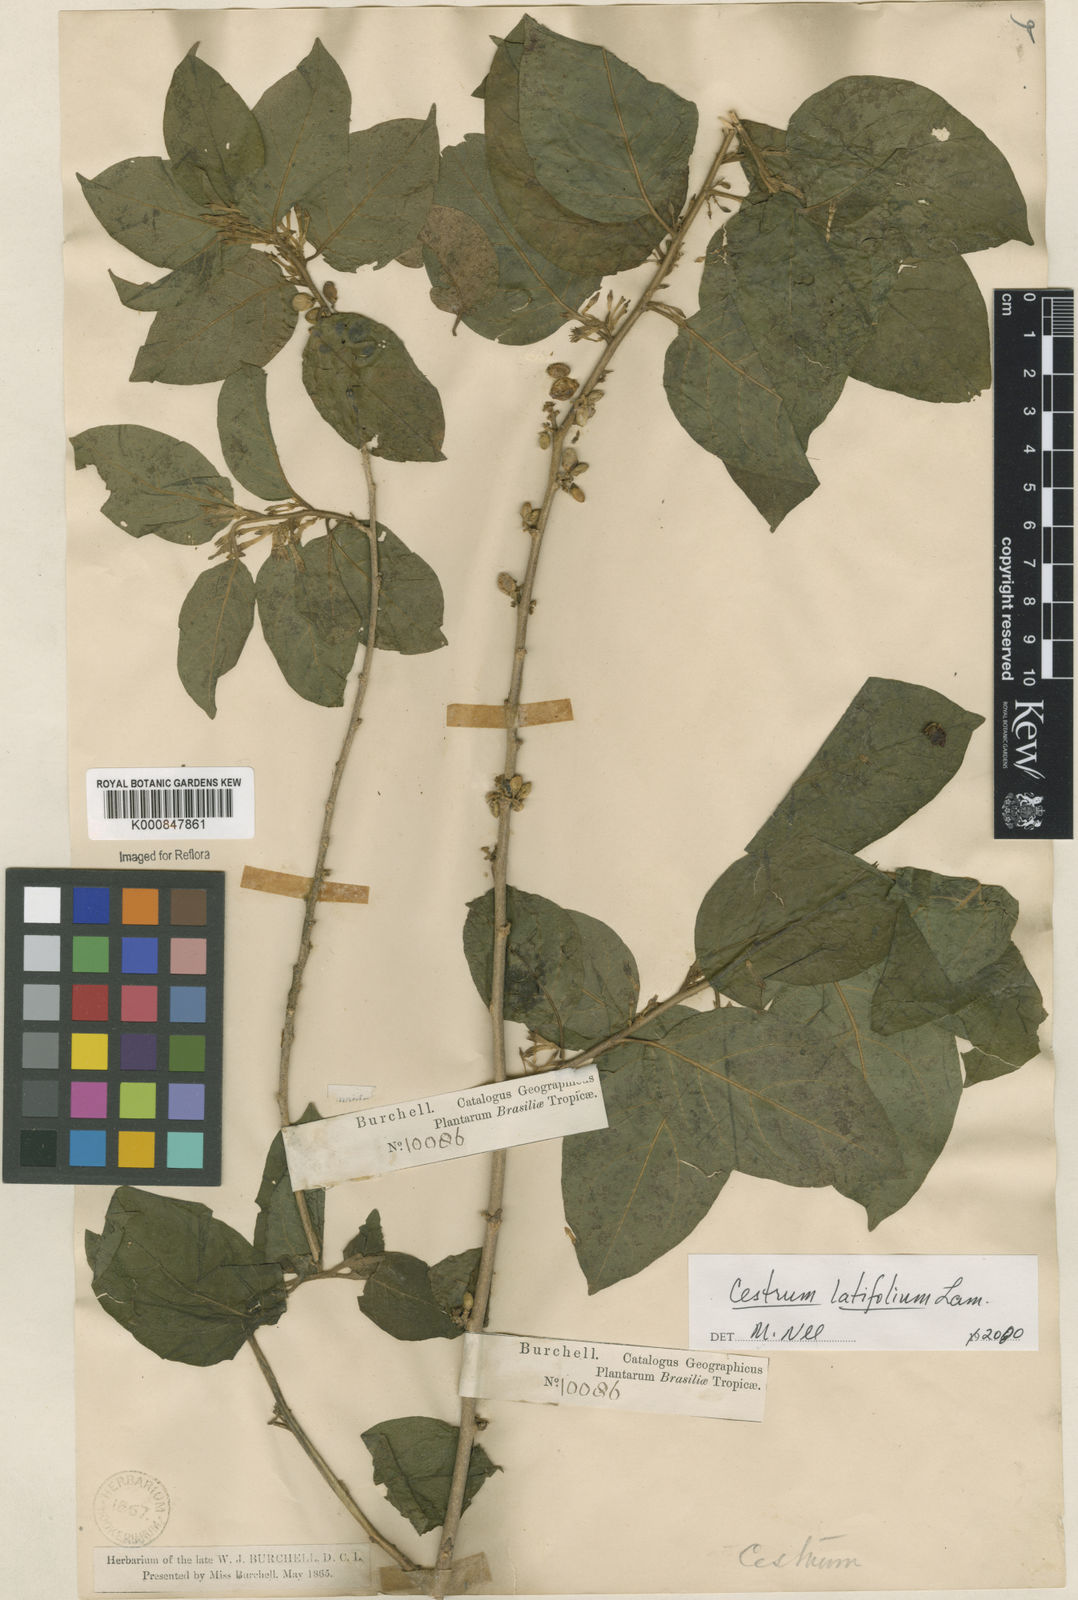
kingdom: Plantae
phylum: Tracheophyta
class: Magnoliopsida
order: Solanales
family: Solanaceae
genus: Cestrum
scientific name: Cestrum latifolium
